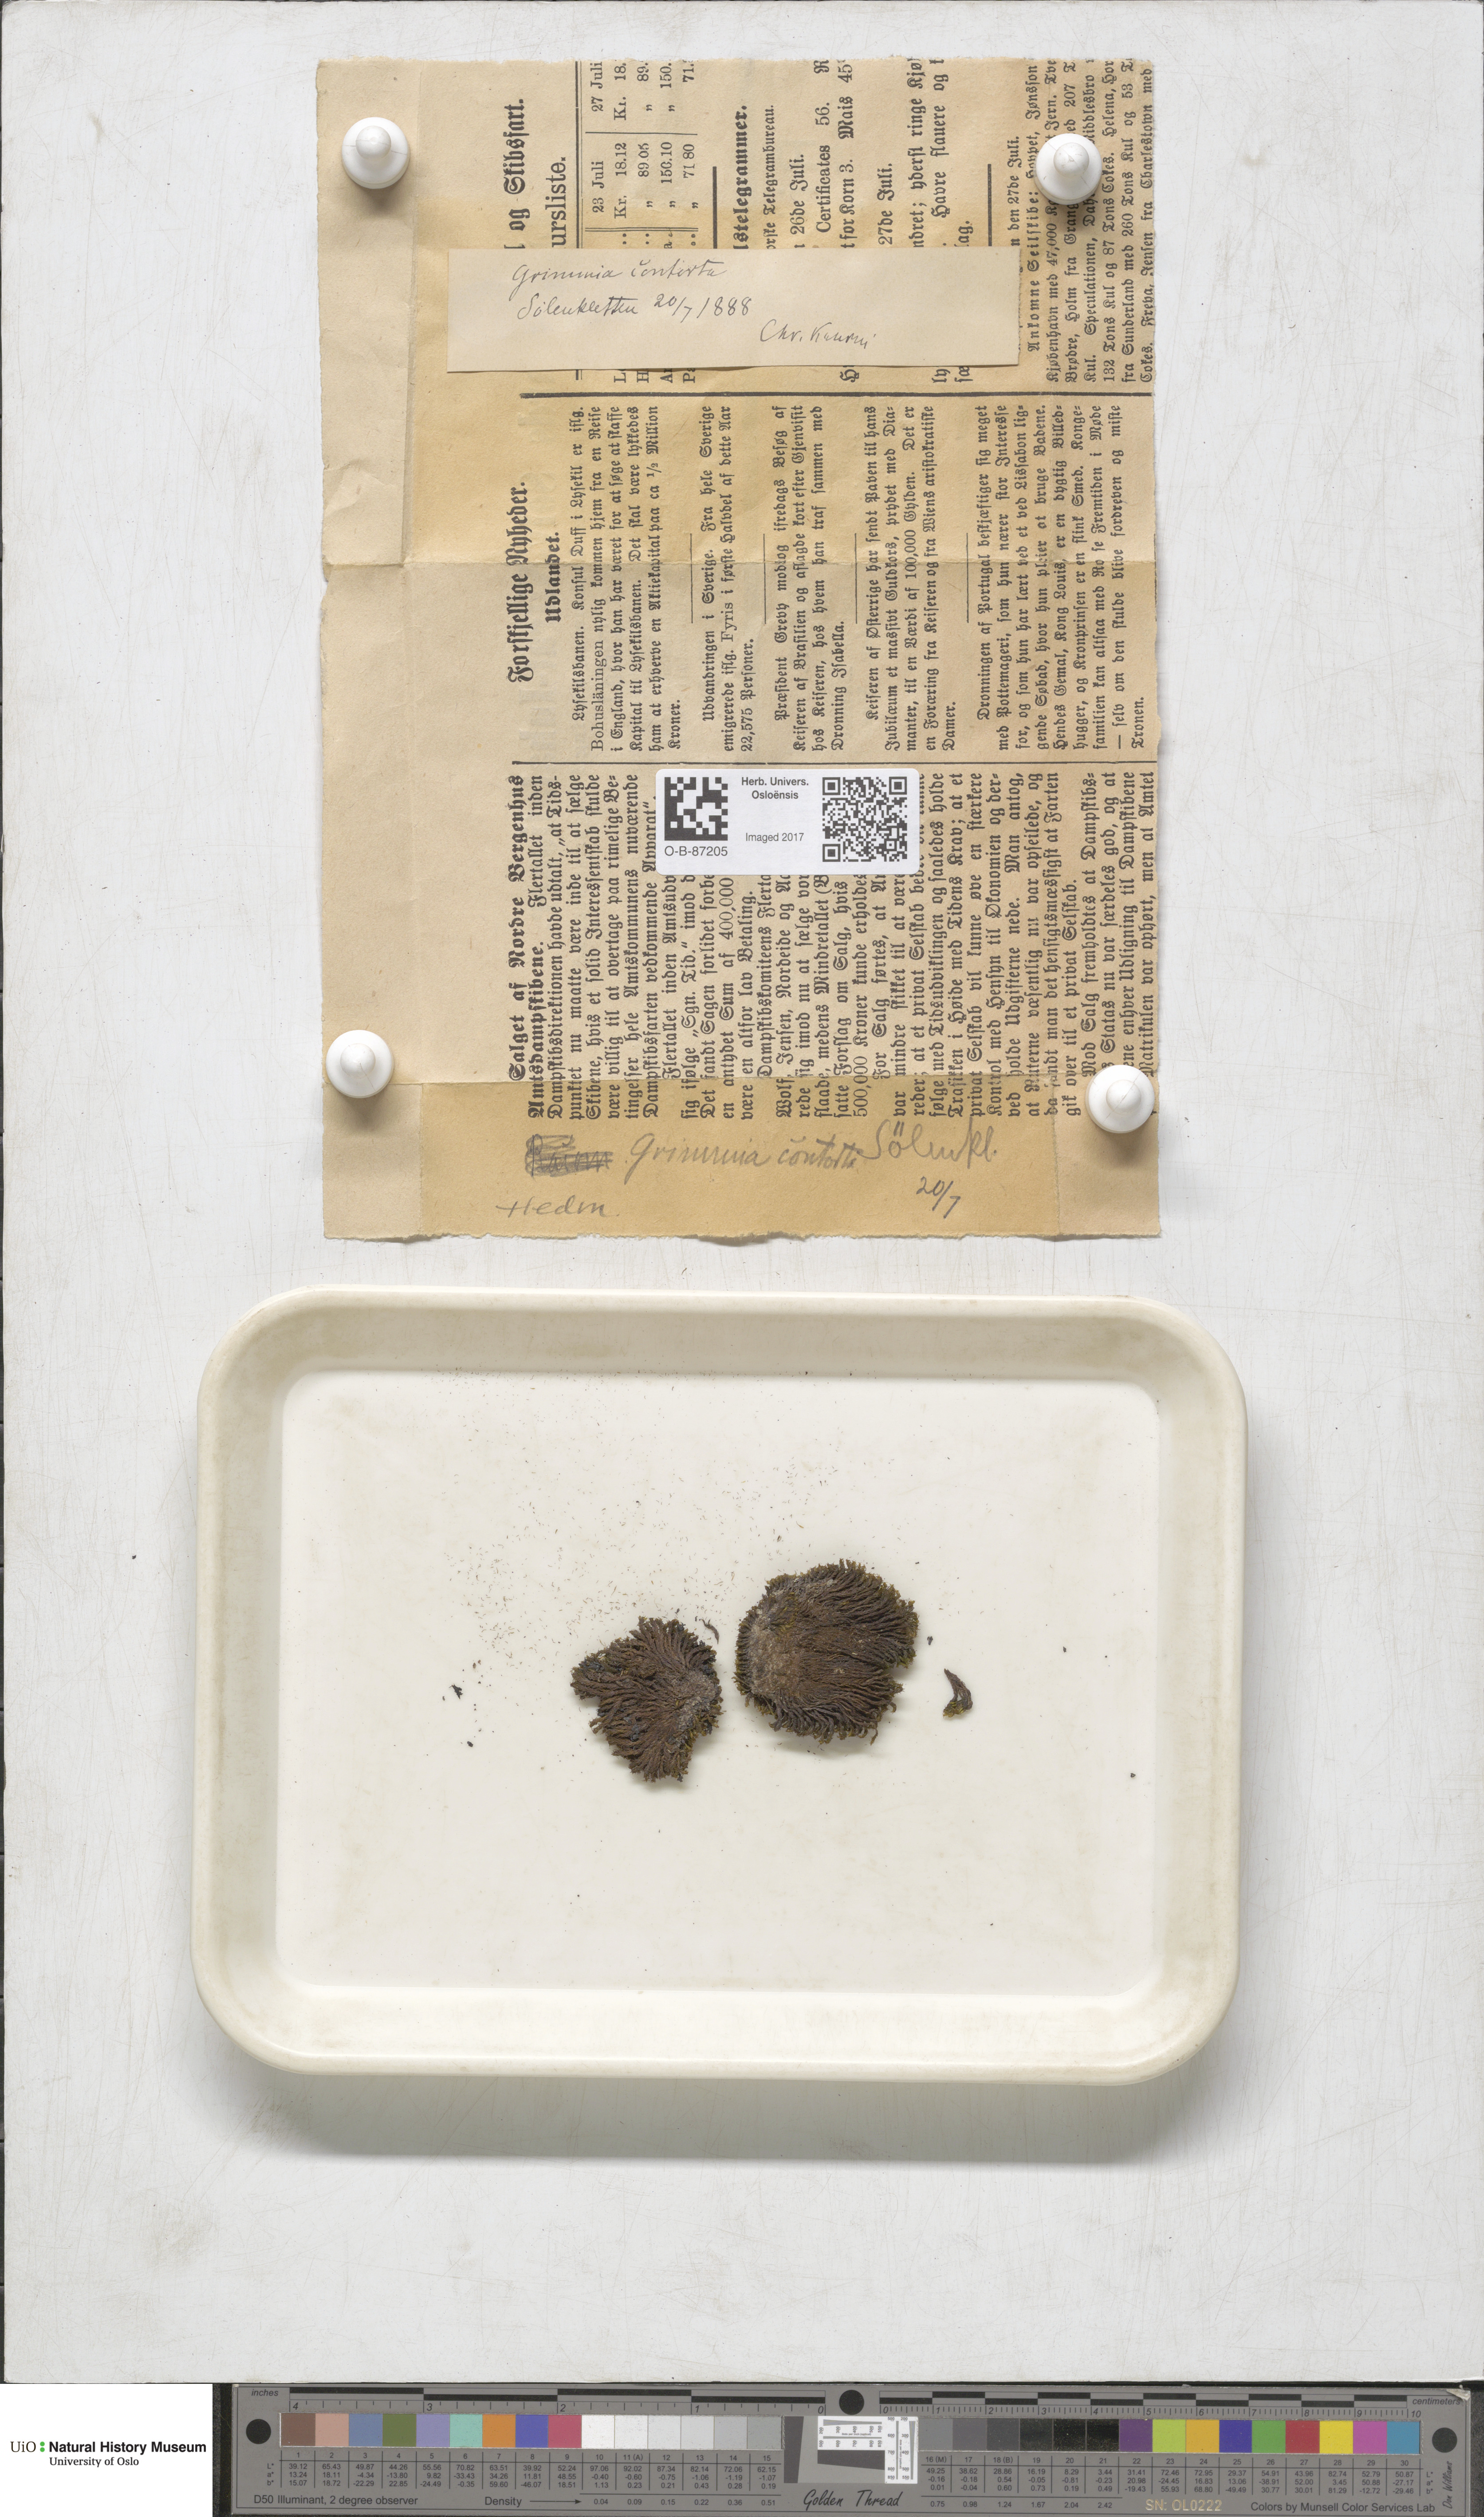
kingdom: Plantae
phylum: Bryophyta
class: Bryopsida
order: Grimmiales
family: Grimmiaceae
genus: Grimmia
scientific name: Grimmia incurva
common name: Black grimmia
